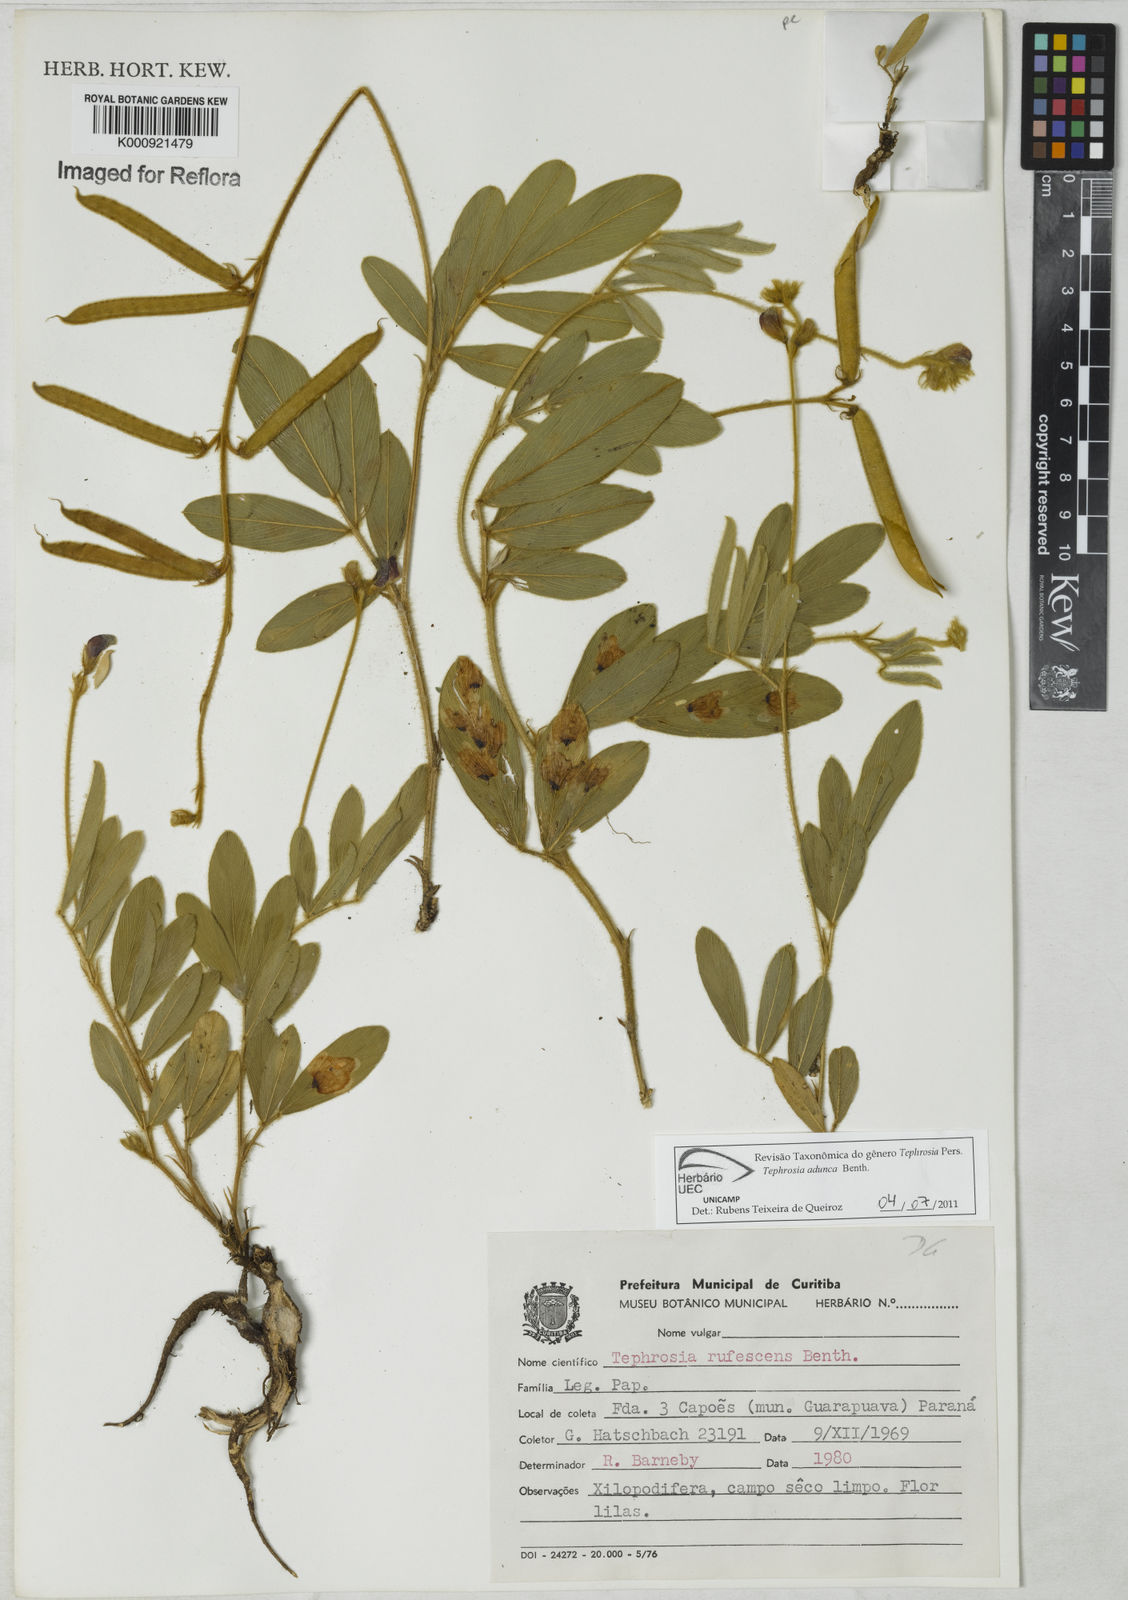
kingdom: Plantae
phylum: Tracheophyta
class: Magnoliopsida
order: Fabales
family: Fabaceae
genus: Tephrosia
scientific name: Tephrosia adunca
